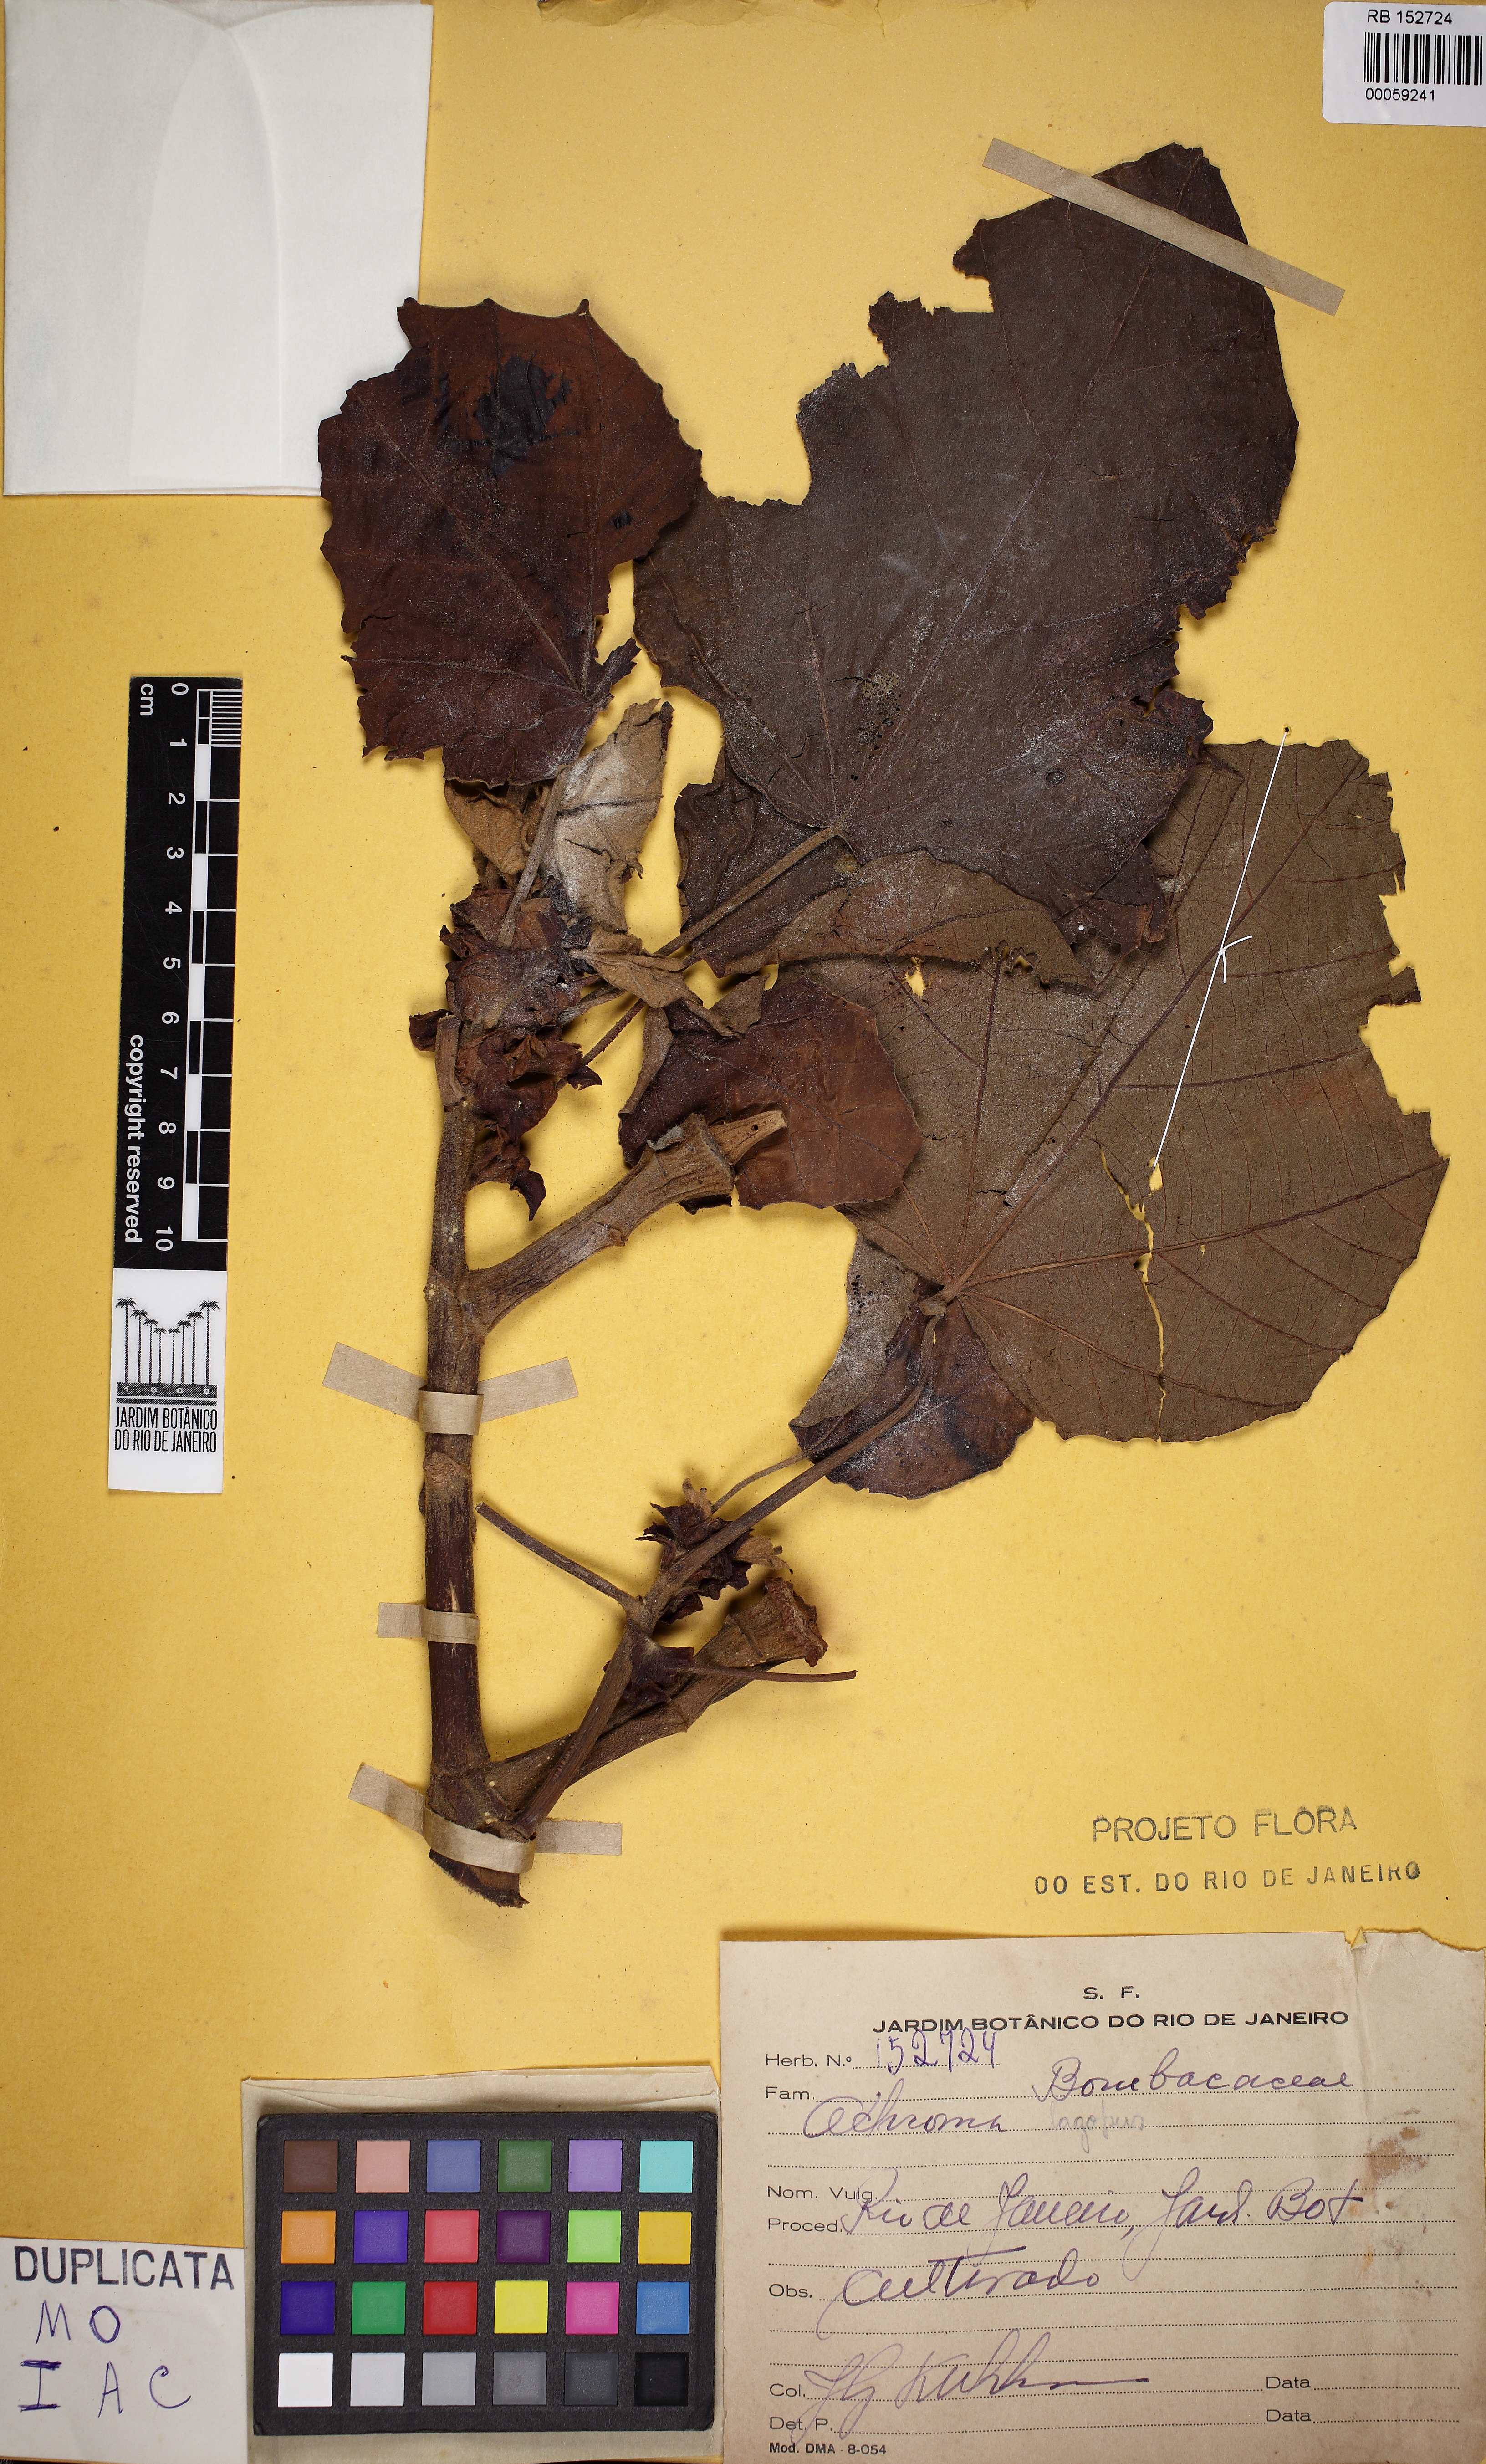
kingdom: Plantae
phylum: Tracheophyta
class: Magnoliopsida
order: Malvales
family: Malvaceae
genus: Ochroma
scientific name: Ochroma pyramidale
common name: Balsa
